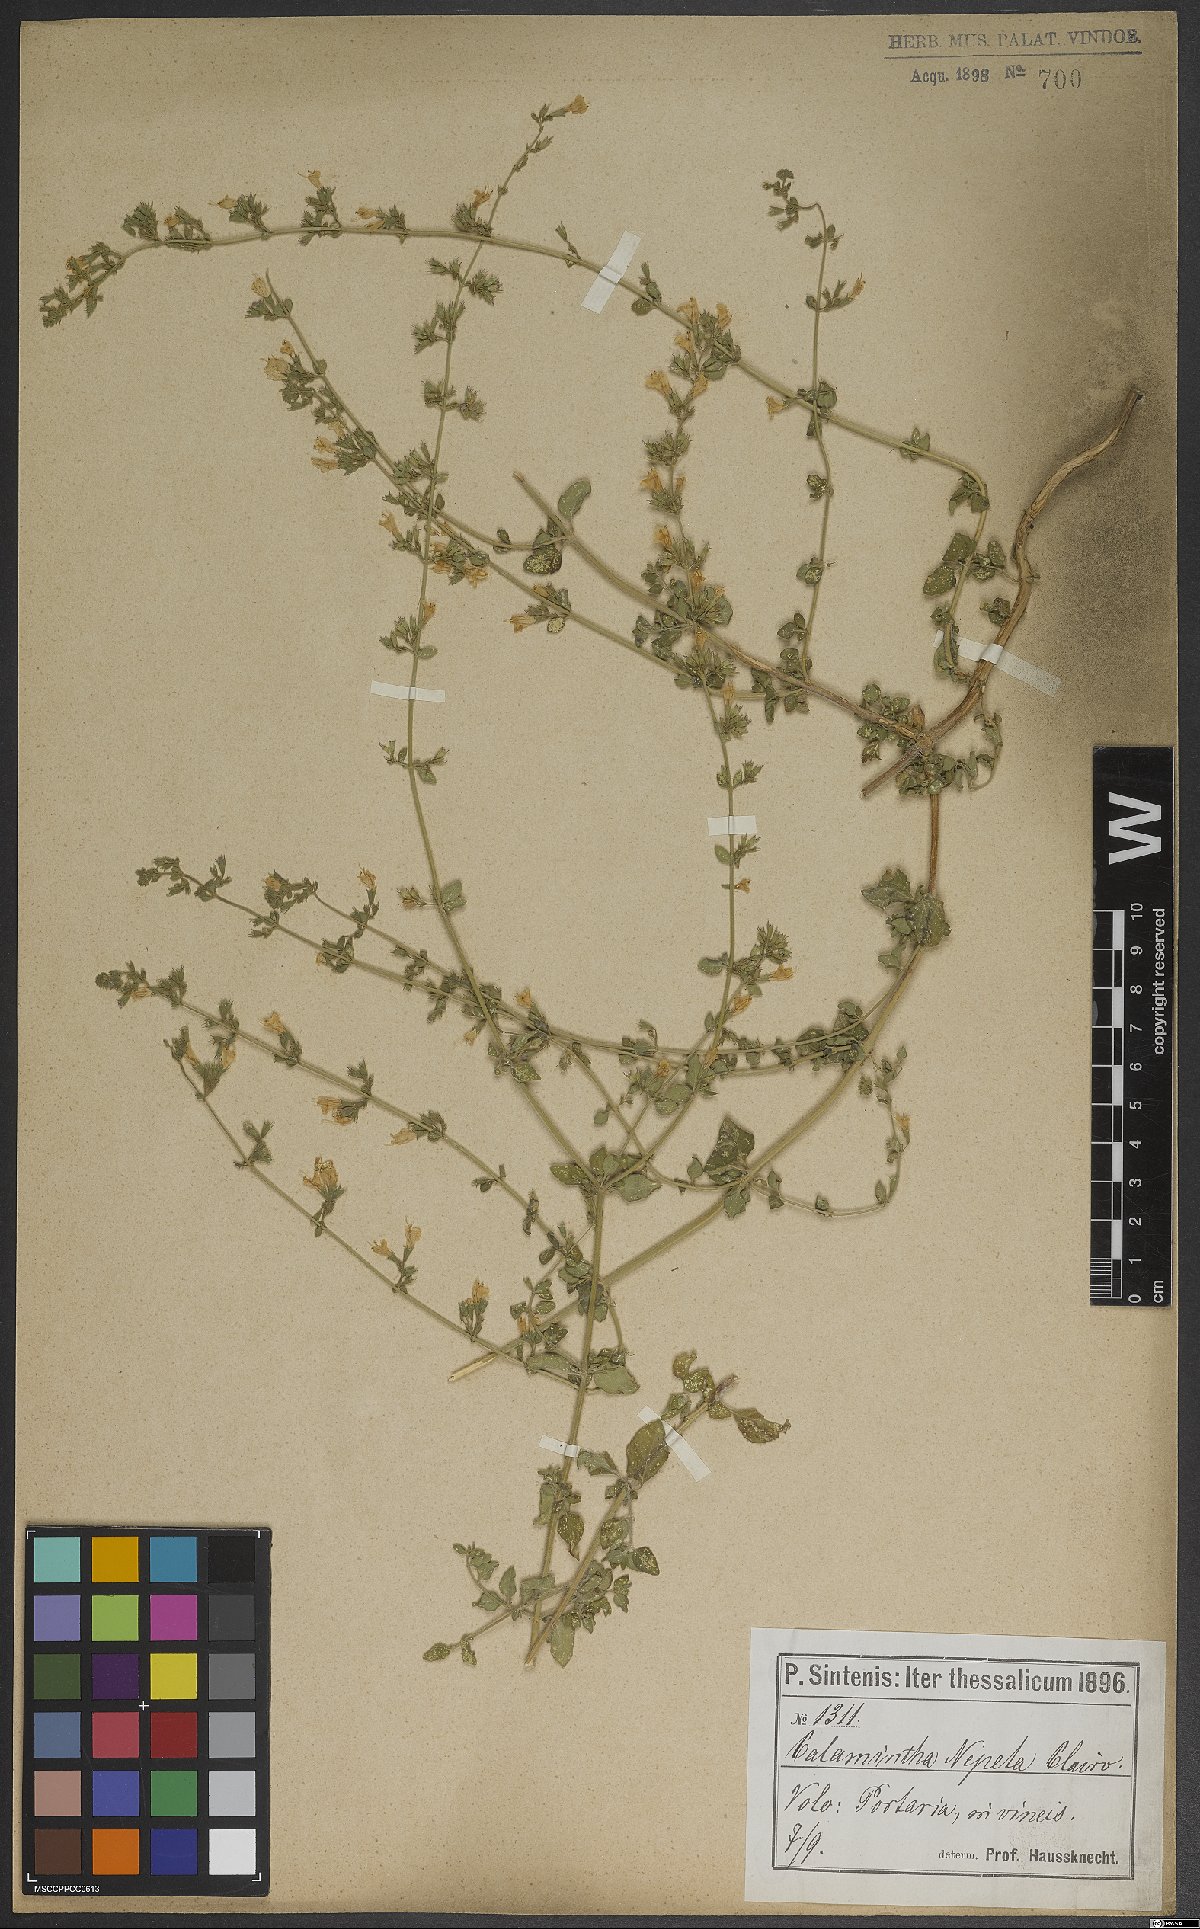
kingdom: Plantae
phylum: Tracheophyta
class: Magnoliopsida
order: Lamiales
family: Lamiaceae
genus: Clinopodium
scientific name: Clinopodium nepeta
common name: Lesser calamint
